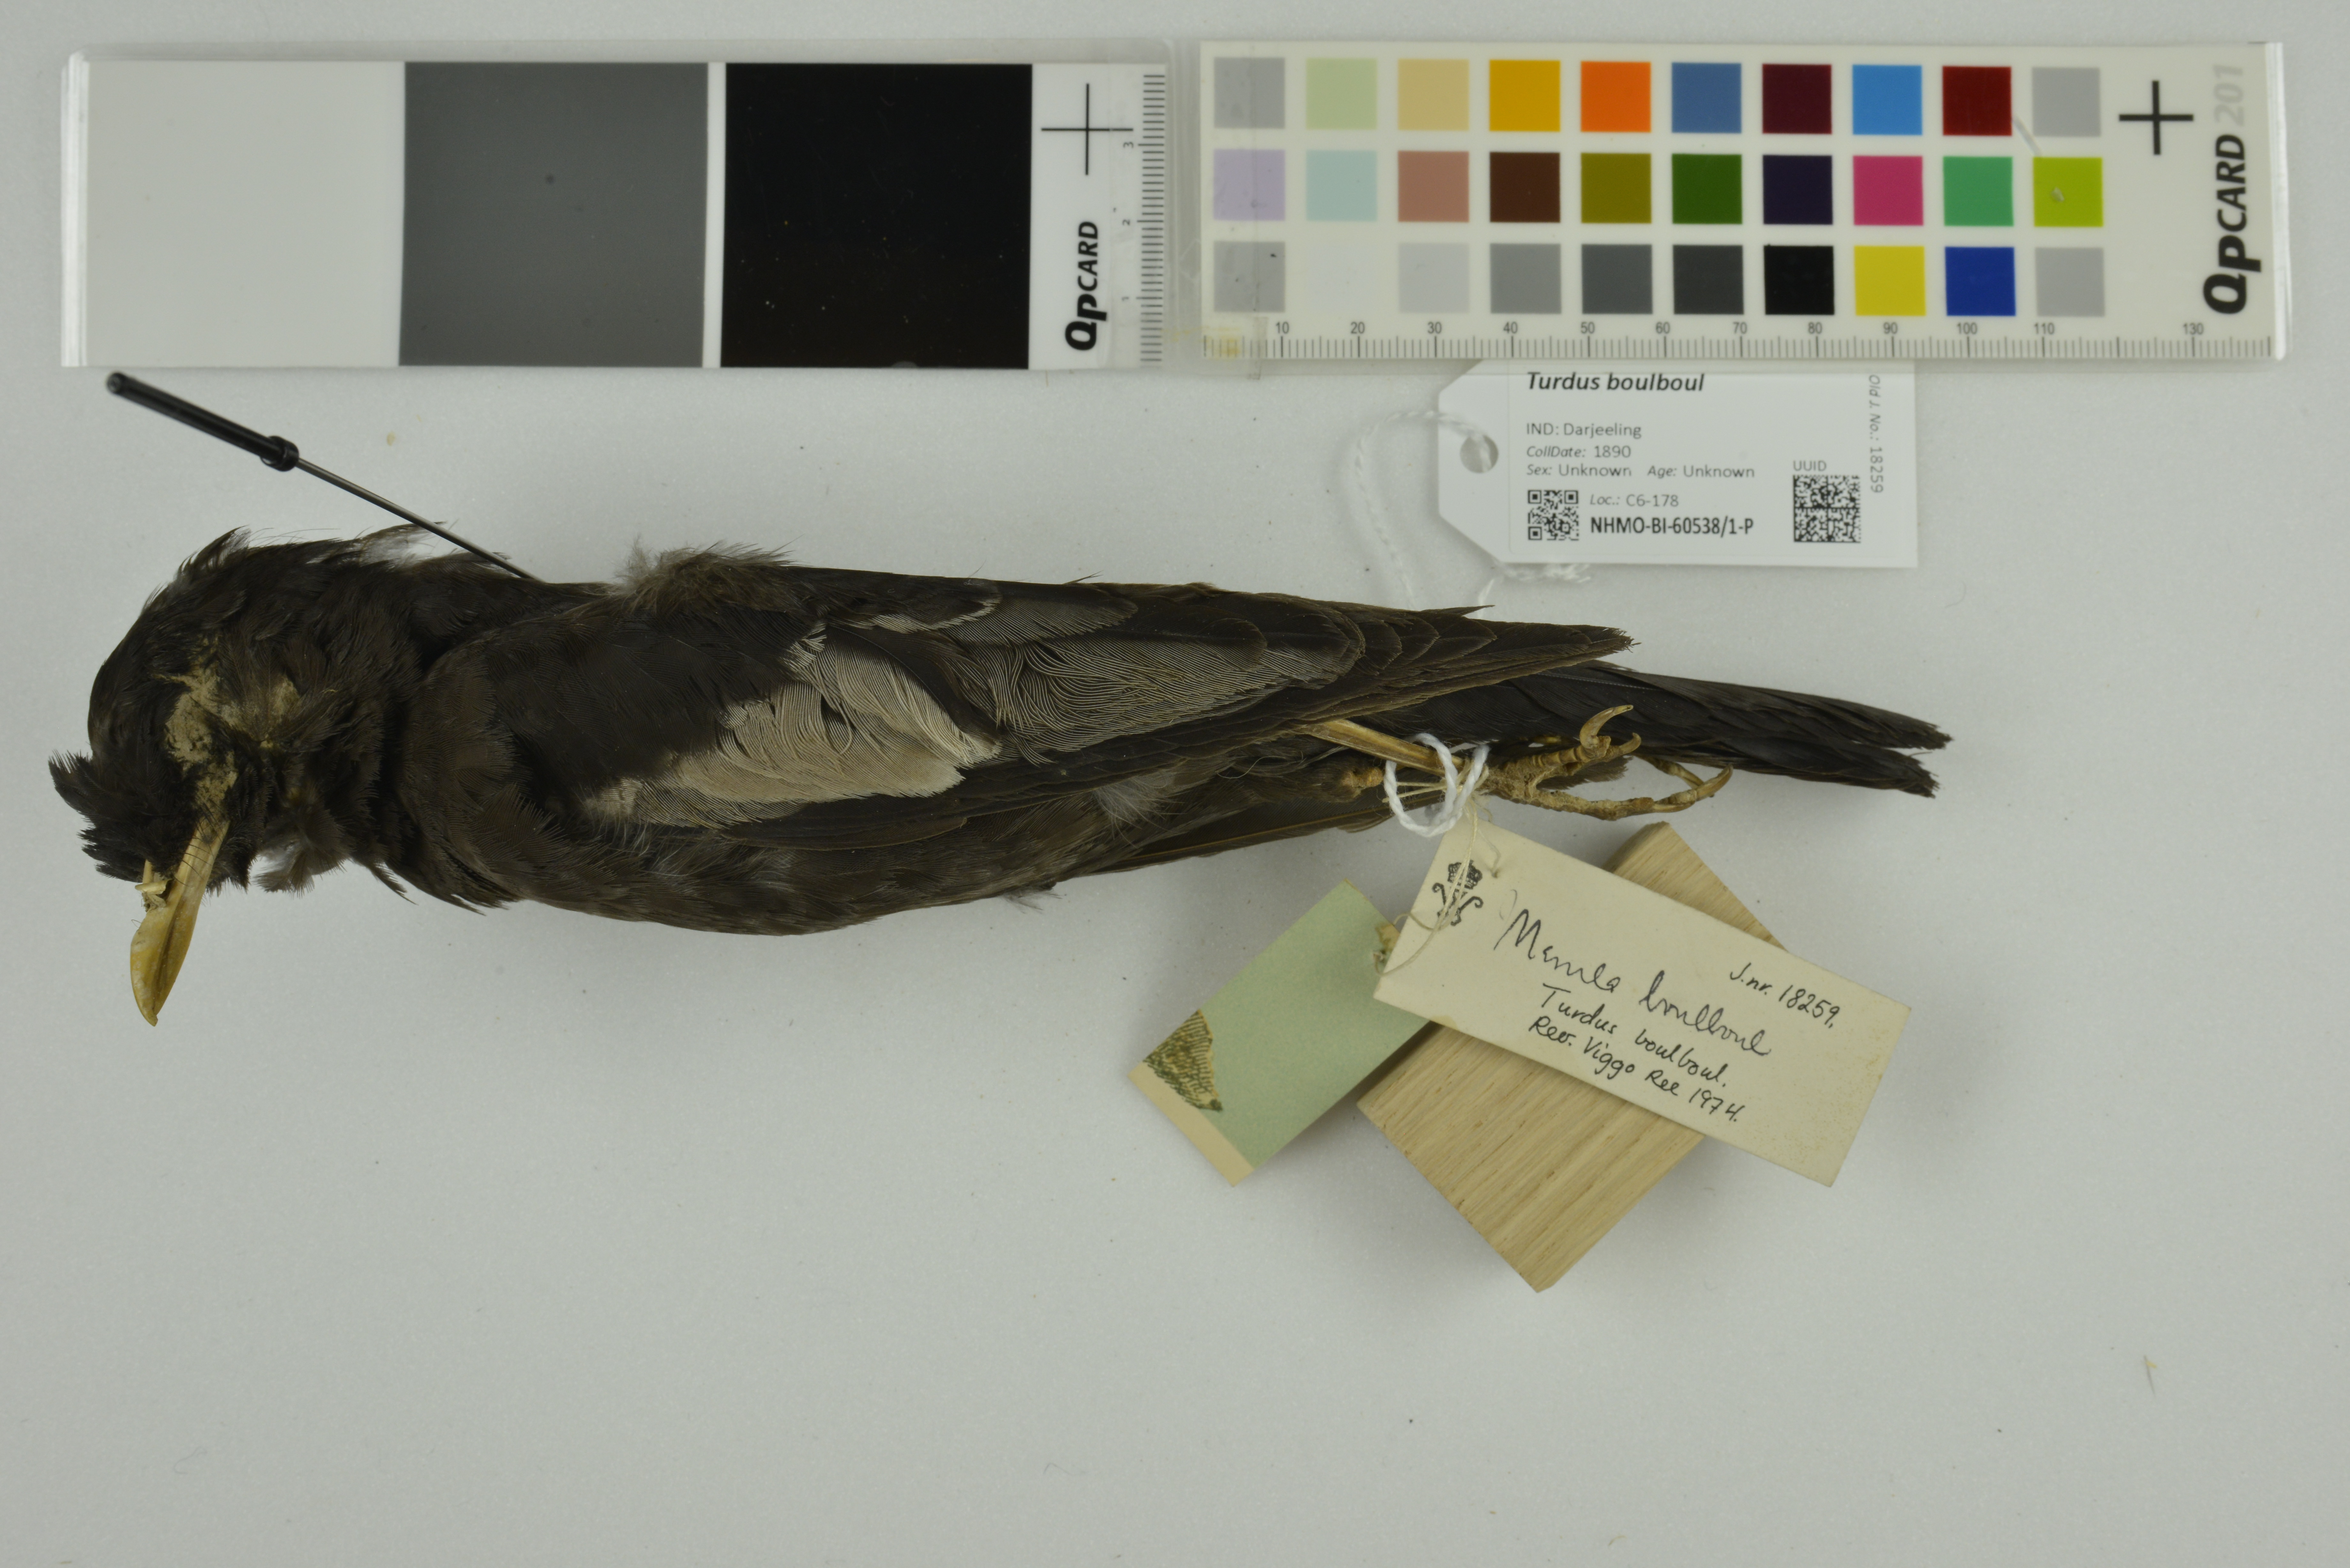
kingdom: Animalia
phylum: Chordata
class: Aves
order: Passeriformes
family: Turdidae
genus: Turdus
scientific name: Turdus boulboul
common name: Grey-winged blackbird
